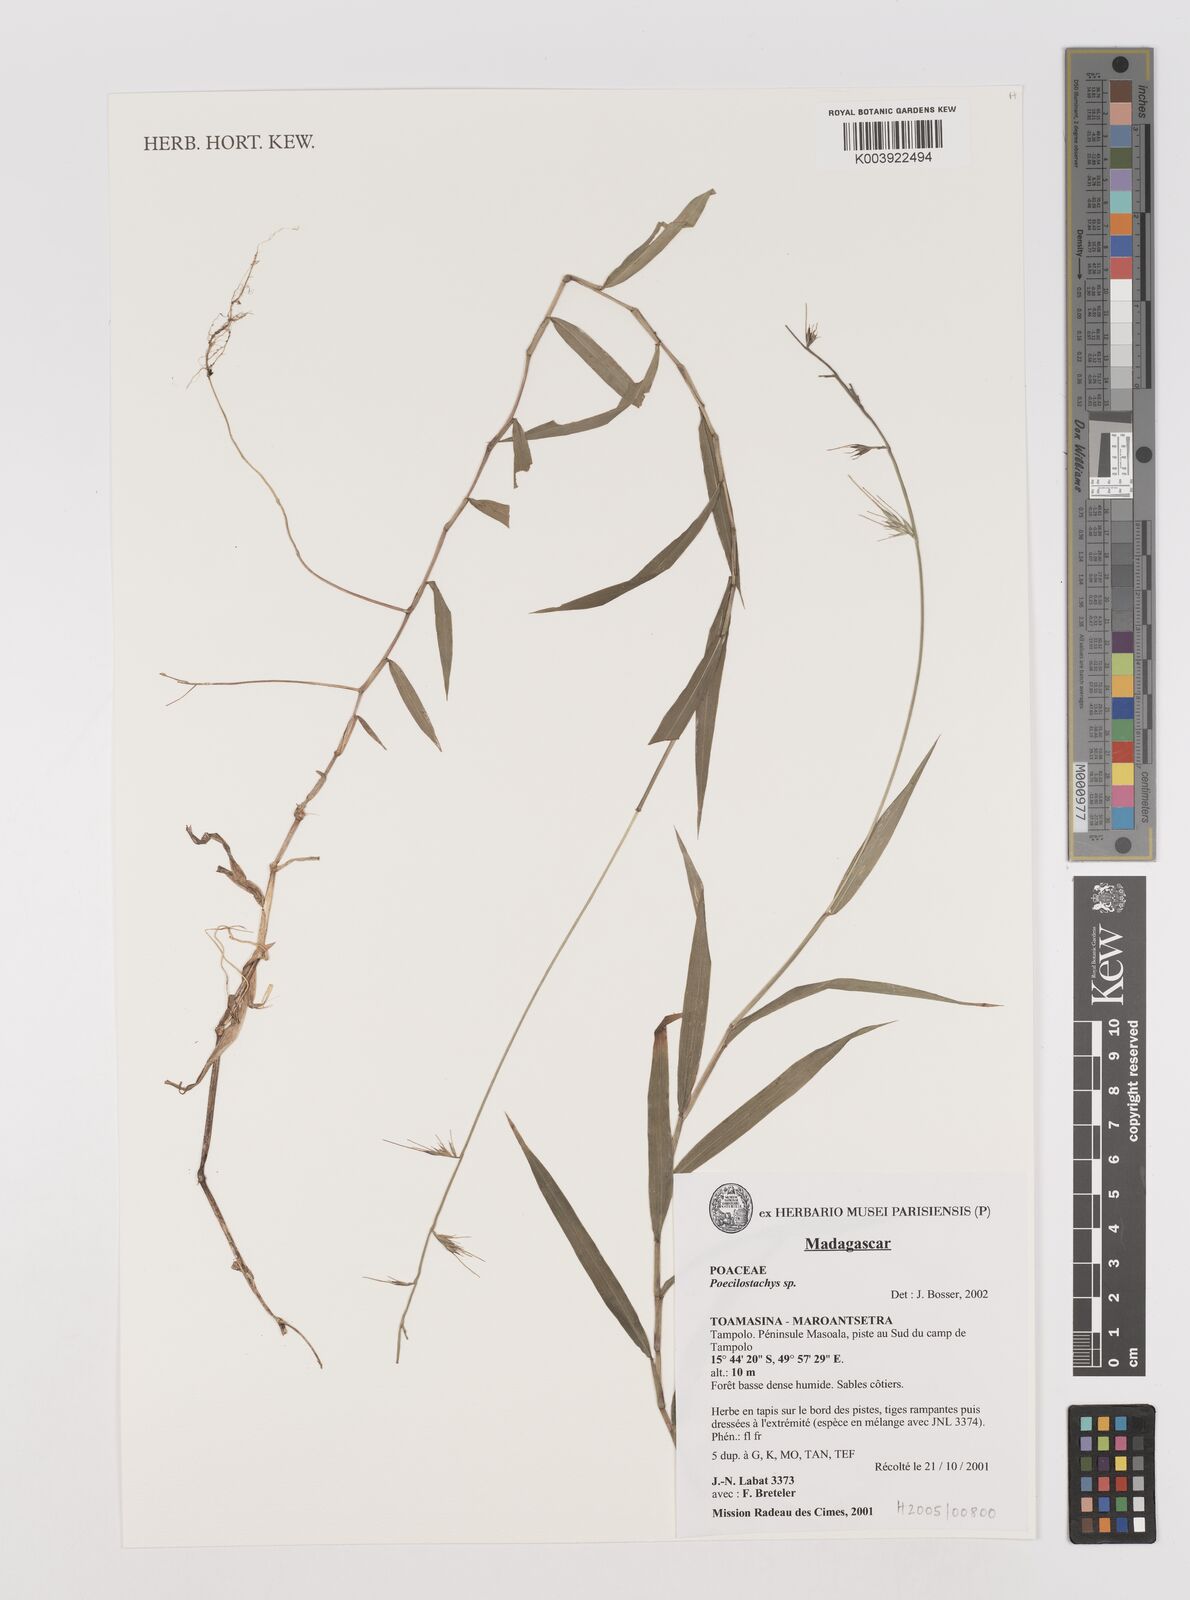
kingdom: Plantae
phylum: Tracheophyta
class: Liliopsida
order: Poales
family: Poaceae
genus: Poecilostachys
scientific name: Poecilostachys
